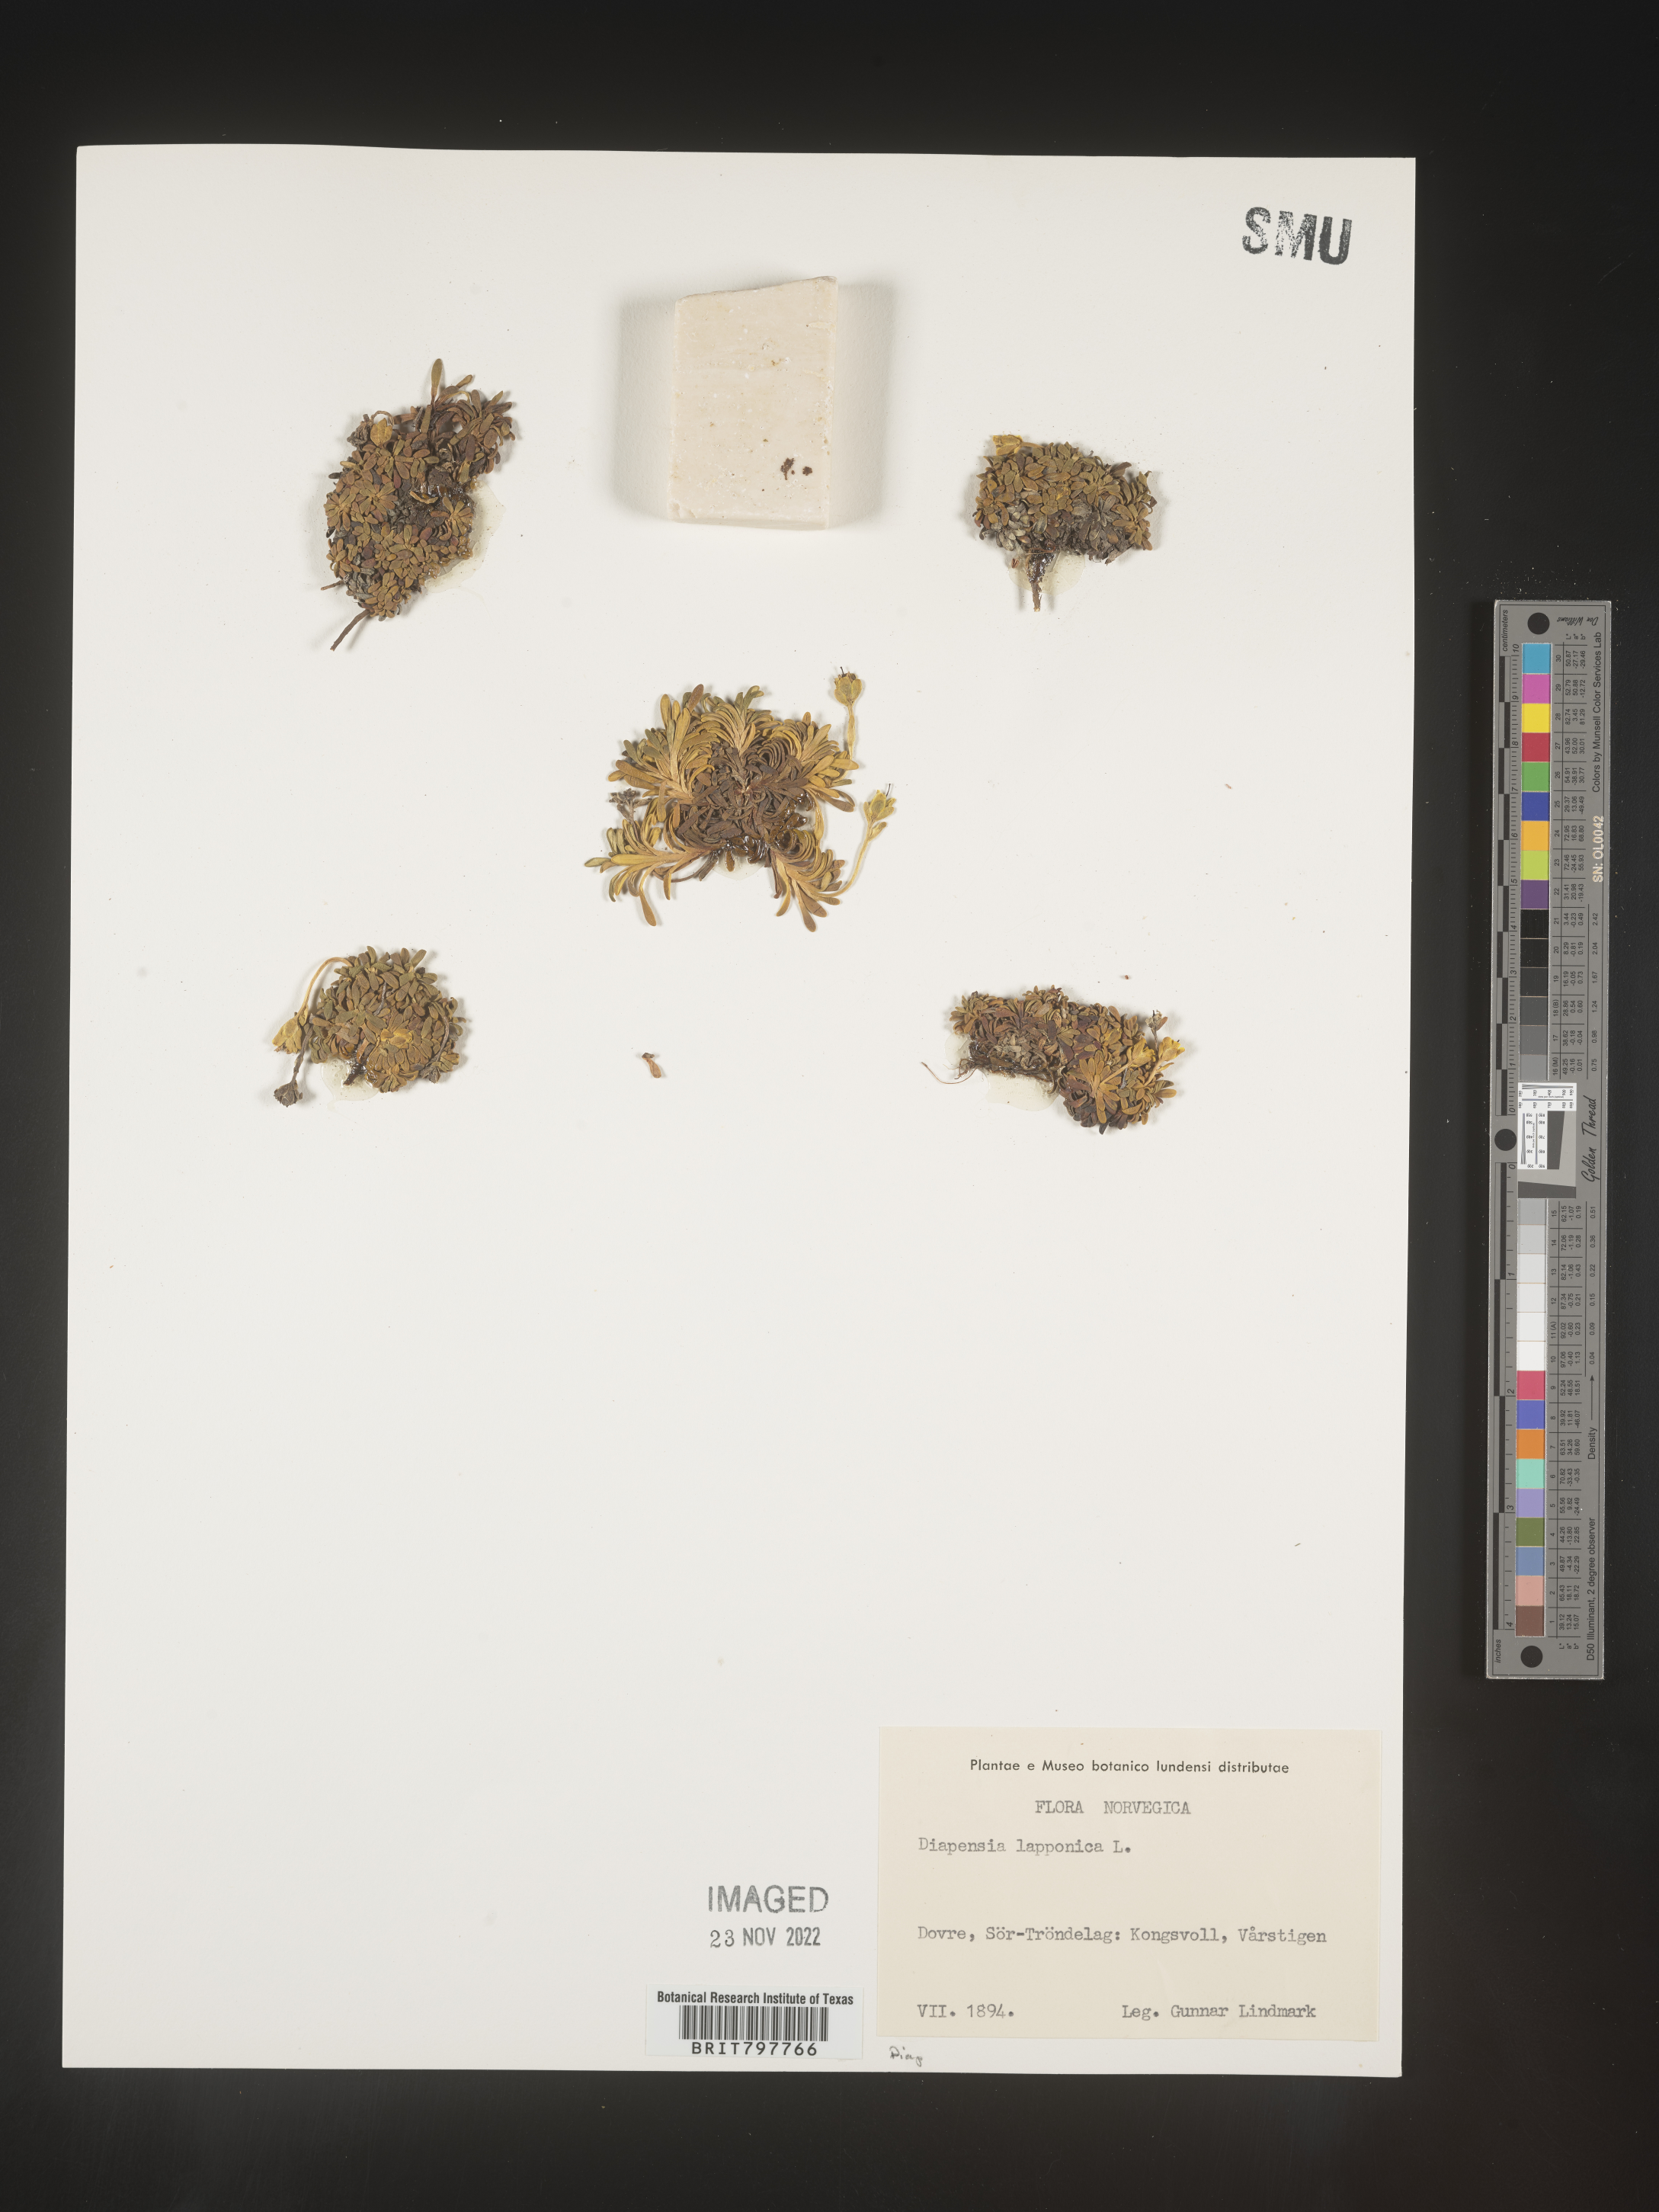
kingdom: Plantae
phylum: Tracheophyta
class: Magnoliopsida
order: Ericales
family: Diapensiaceae
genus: Diapensia
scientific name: Diapensia
